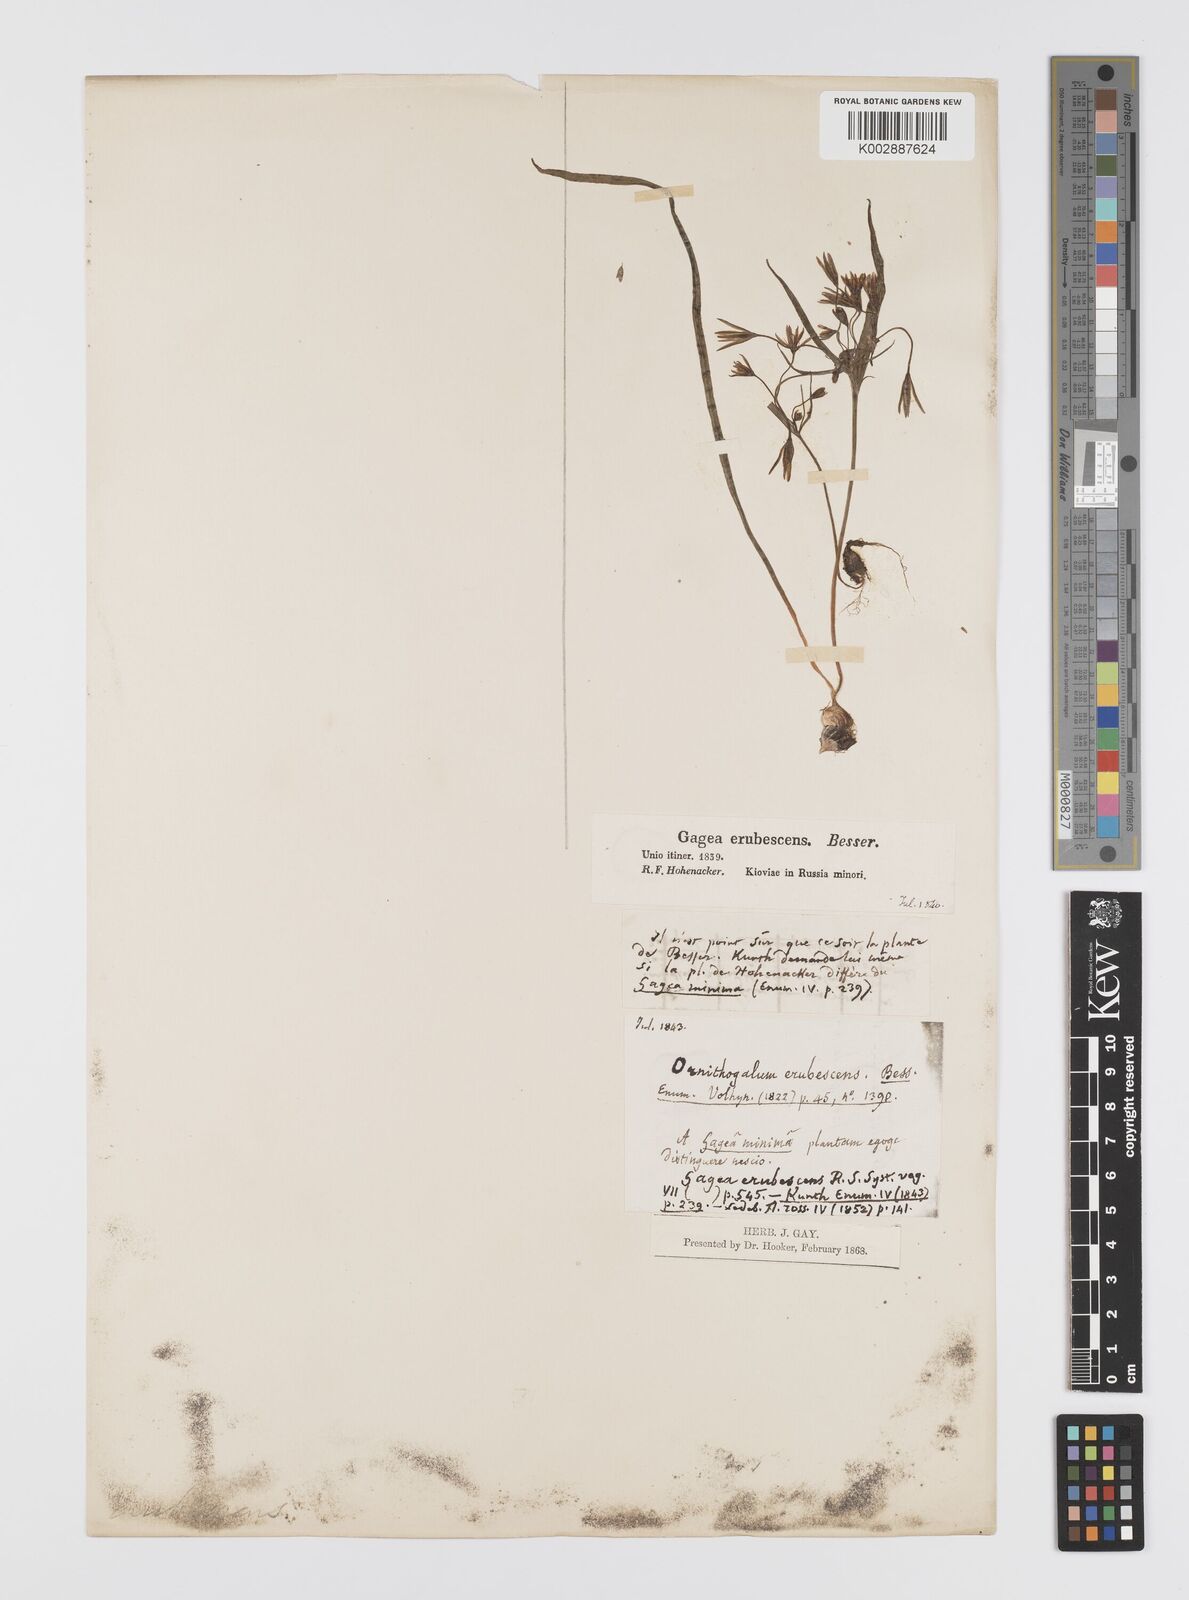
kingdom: Plantae
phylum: Tracheophyta
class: Liliopsida
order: Liliales
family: Liliaceae
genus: Gagea
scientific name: Gagea fragifera
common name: Lily
